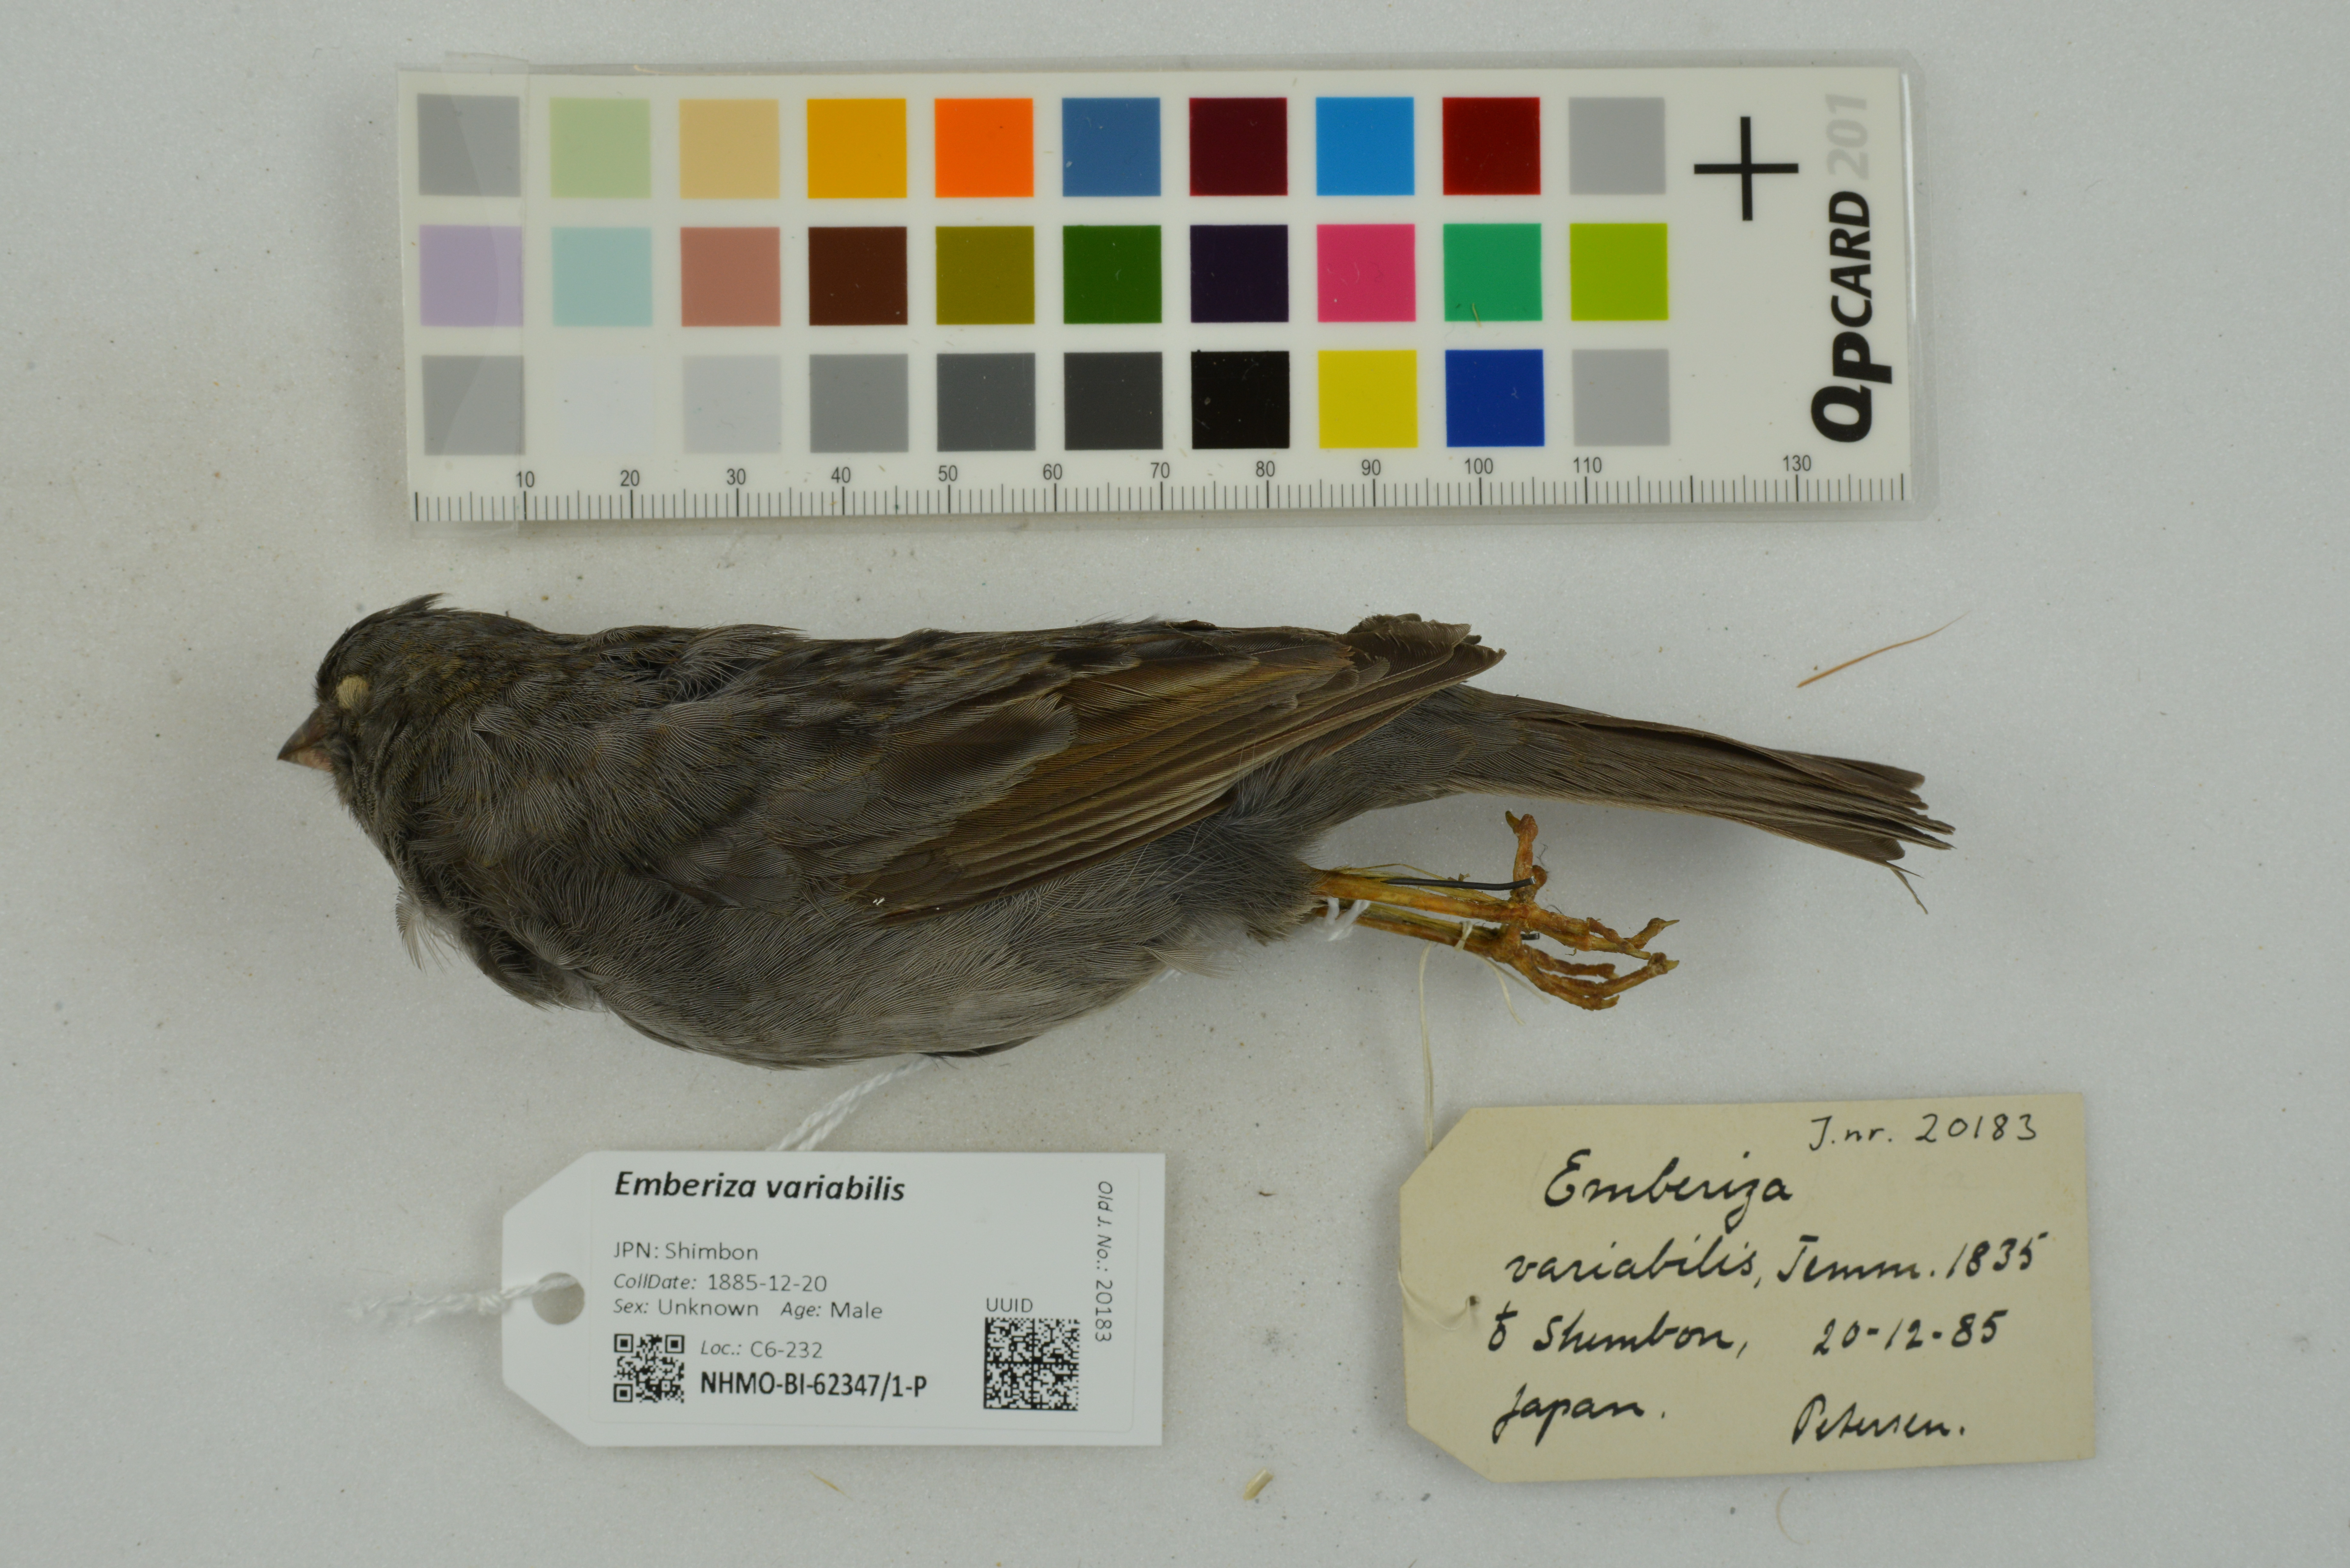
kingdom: Animalia
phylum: Chordata
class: Aves
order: Passeriformes
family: Emberizidae
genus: Emberiza
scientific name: Emberiza variabilis
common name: Gray bunting
